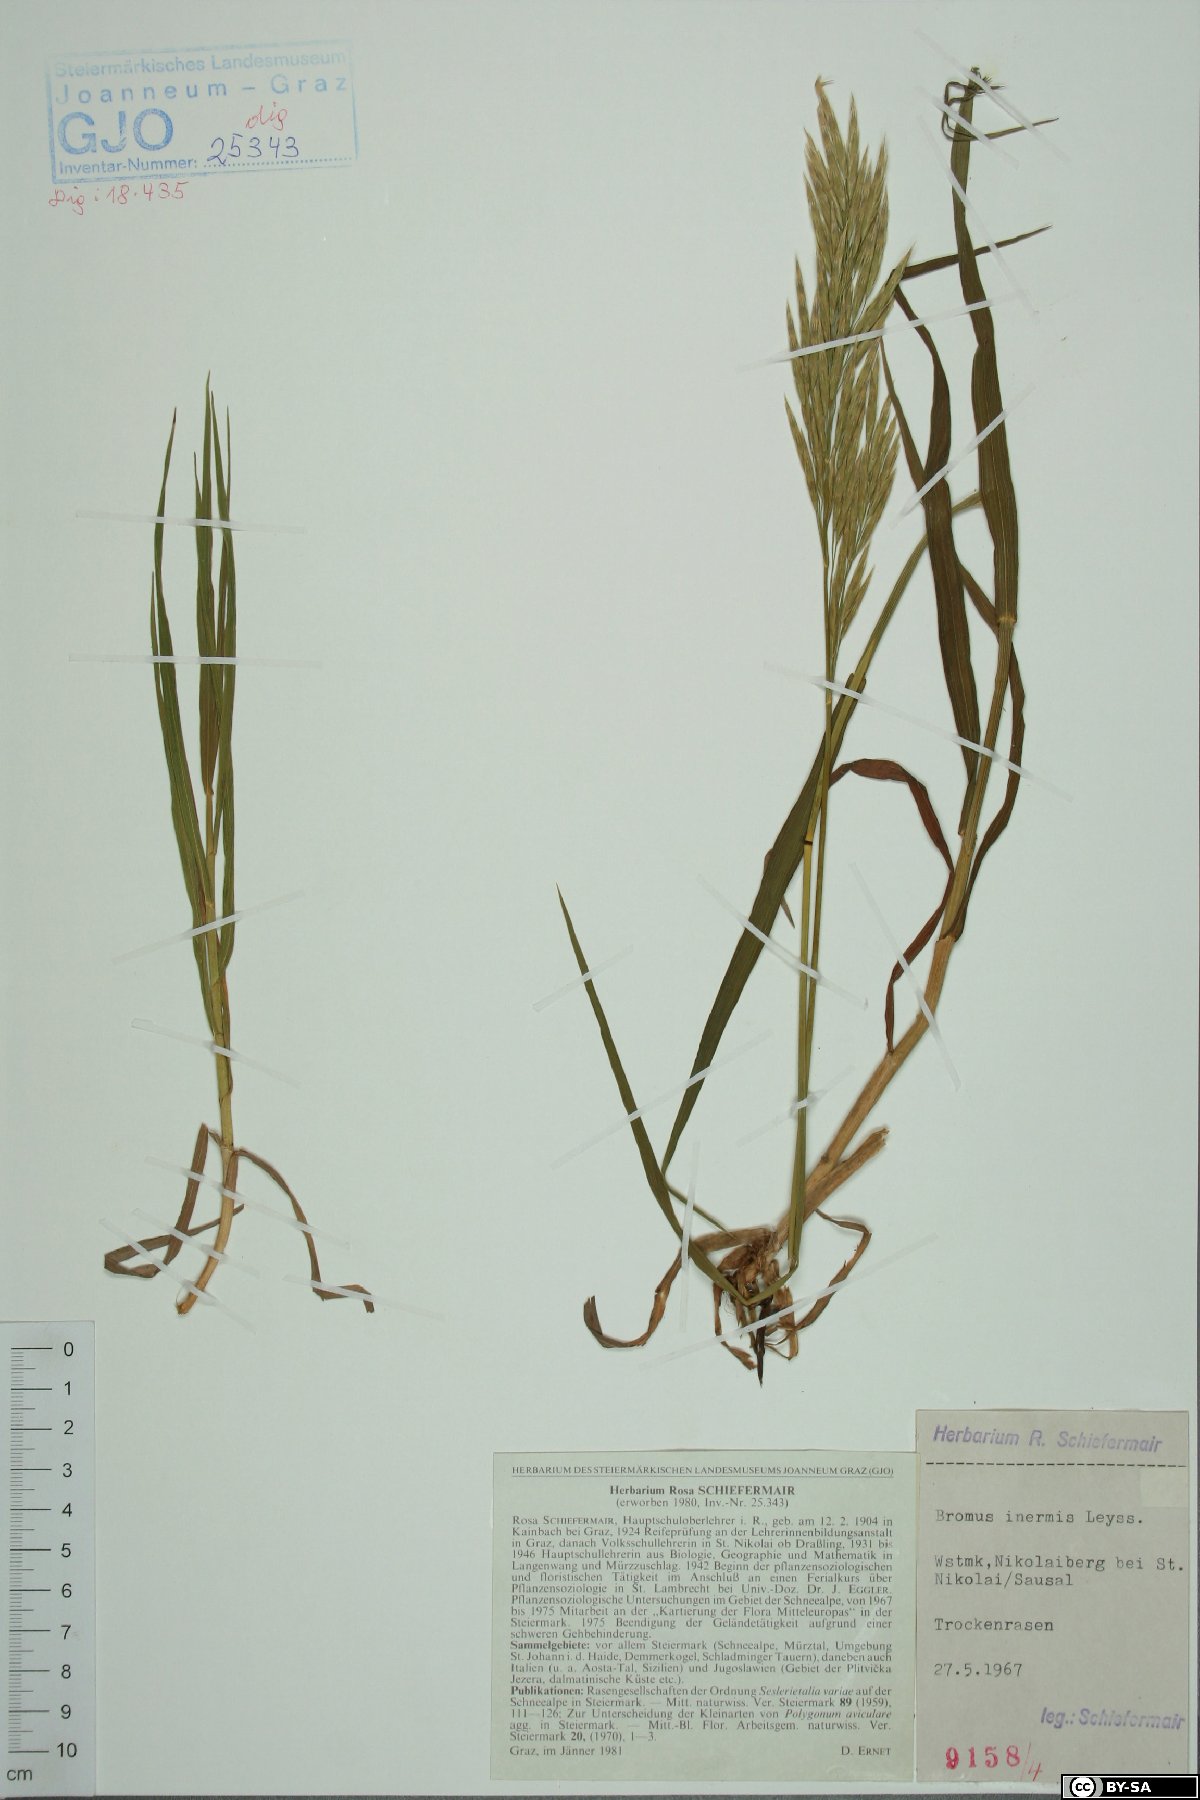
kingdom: Plantae
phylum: Tracheophyta
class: Liliopsida
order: Poales
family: Poaceae
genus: Bromus
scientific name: Bromus inermis
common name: Smooth brome
